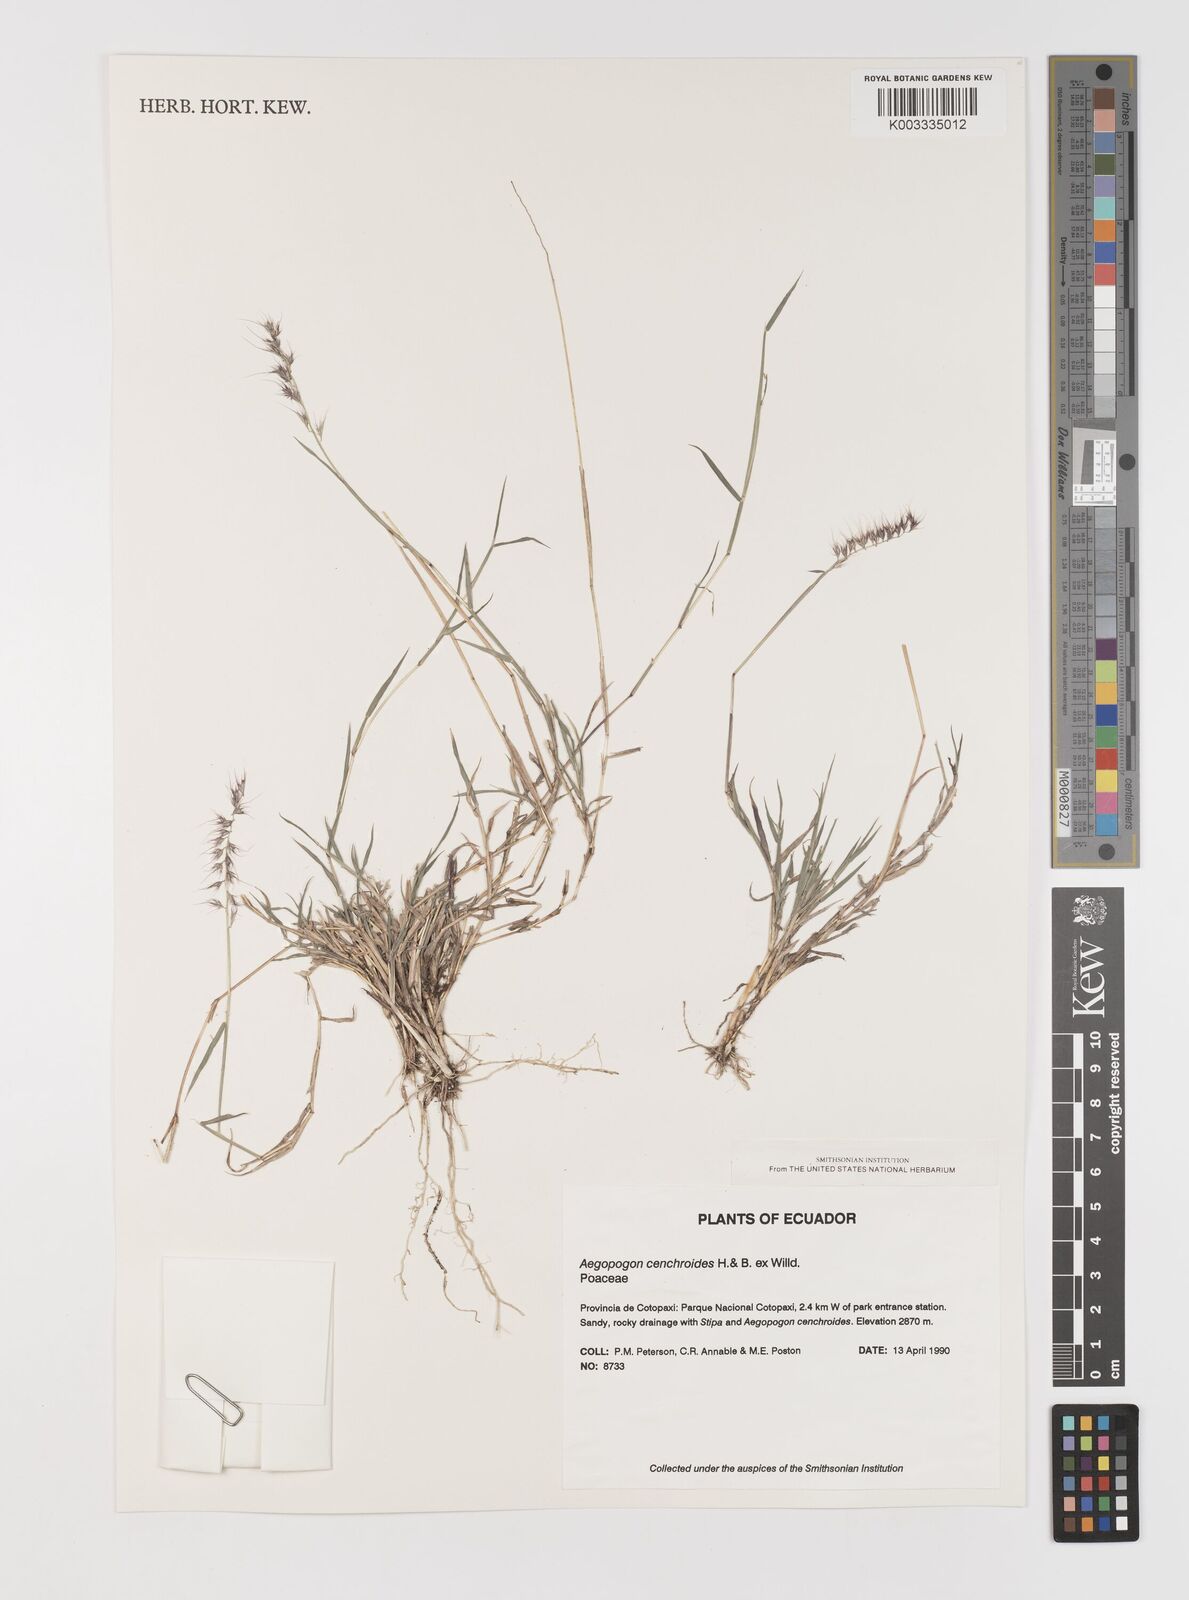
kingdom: Plantae
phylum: Tracheophyta
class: Liliopsida
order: Poales
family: Poaceae
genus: Muhlenbergia
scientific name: Muhlenbergia cenchroides
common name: Relaxgrass
